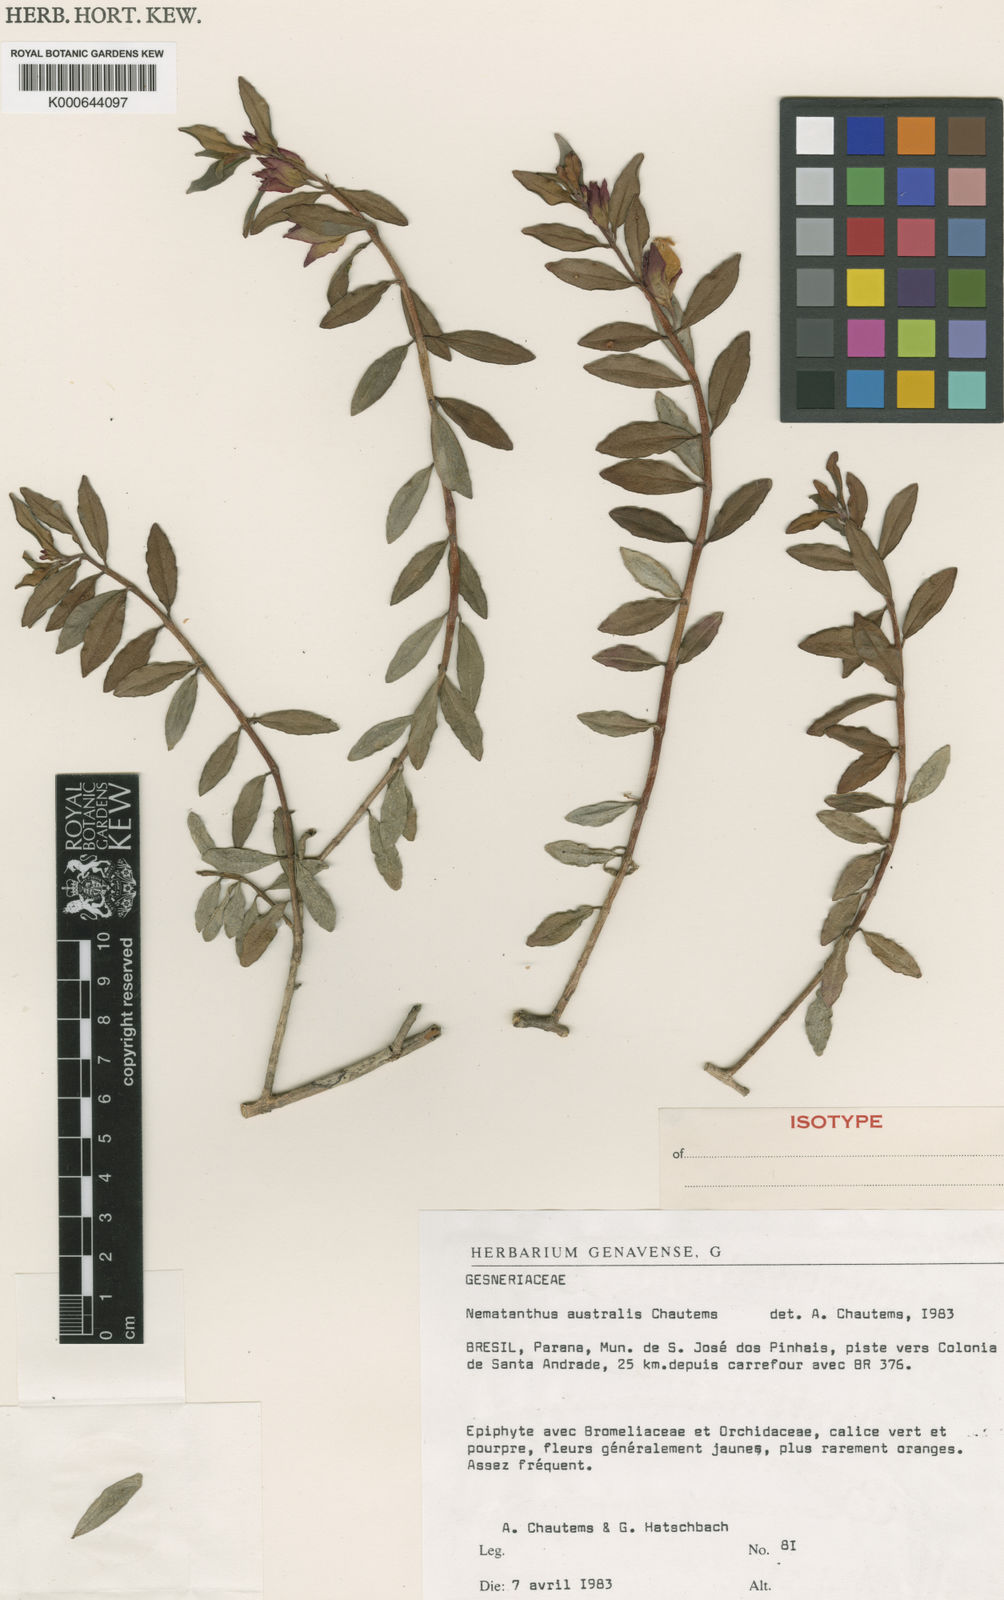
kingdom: Plantae
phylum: Tracheophyta
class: Magnoliopsida
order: Lamiales
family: Gesneriaceae
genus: Nematanthus
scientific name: Nematanthus australis
